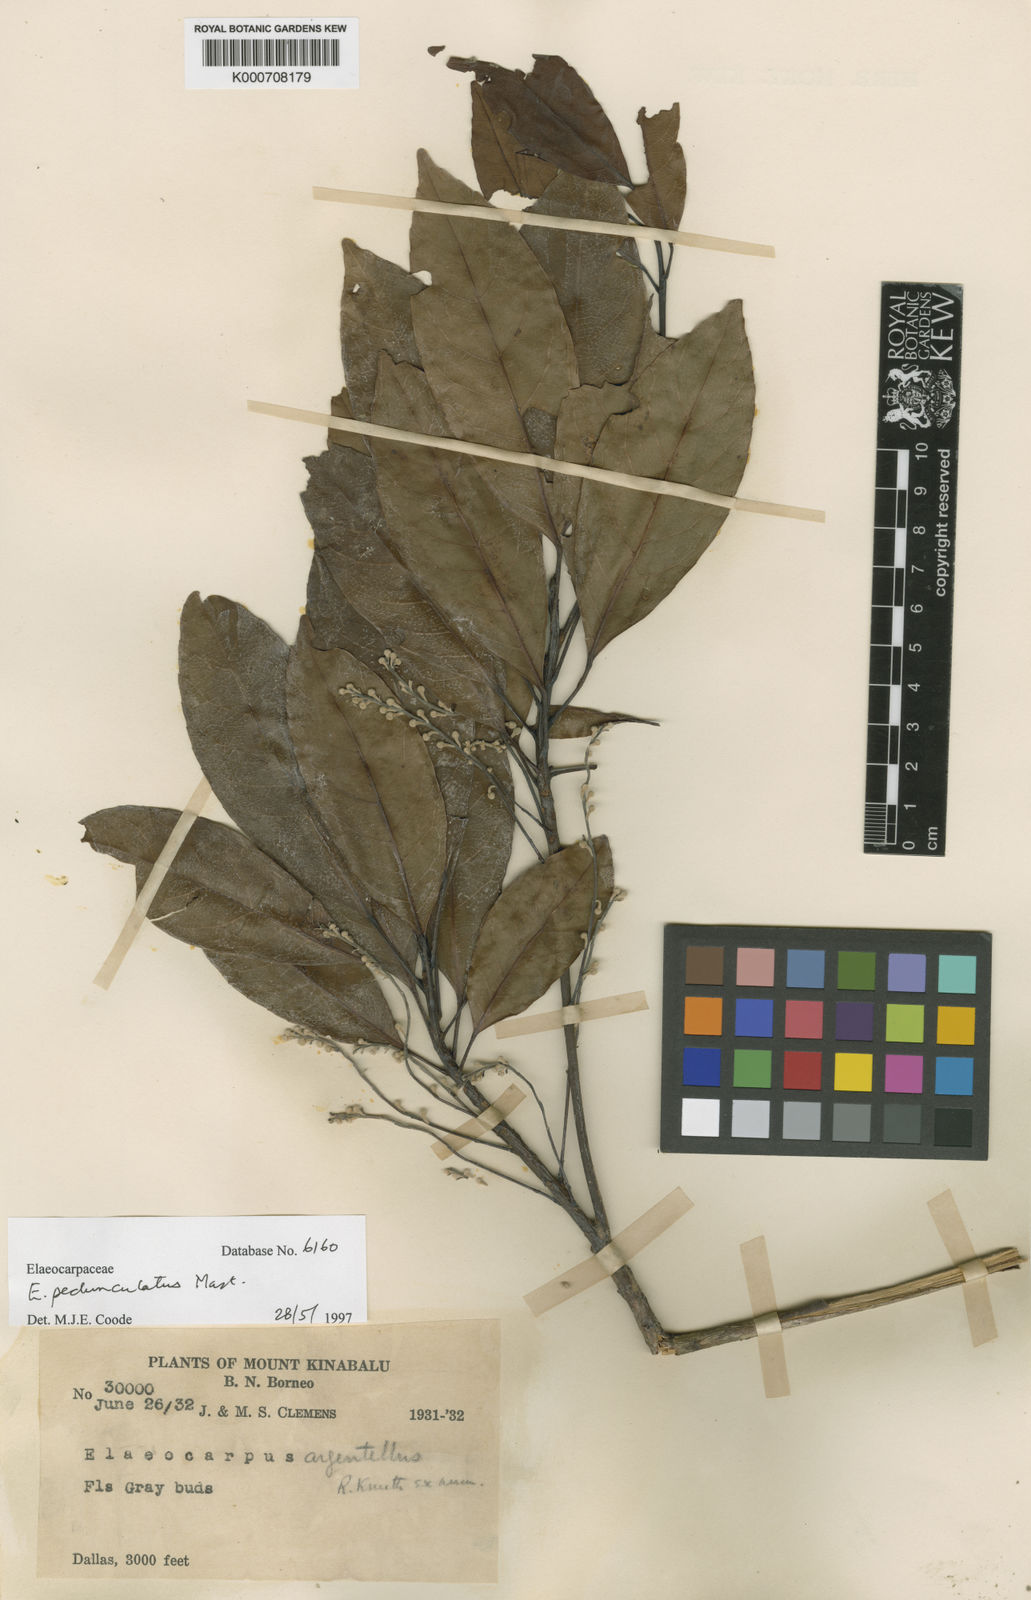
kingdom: Plantae
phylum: Tracheophyta
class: Magnoliopsida
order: Oxalidales
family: Elaeocarpaceae
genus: Elaeocarpus
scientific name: Elaeocarpus pedunculatus
